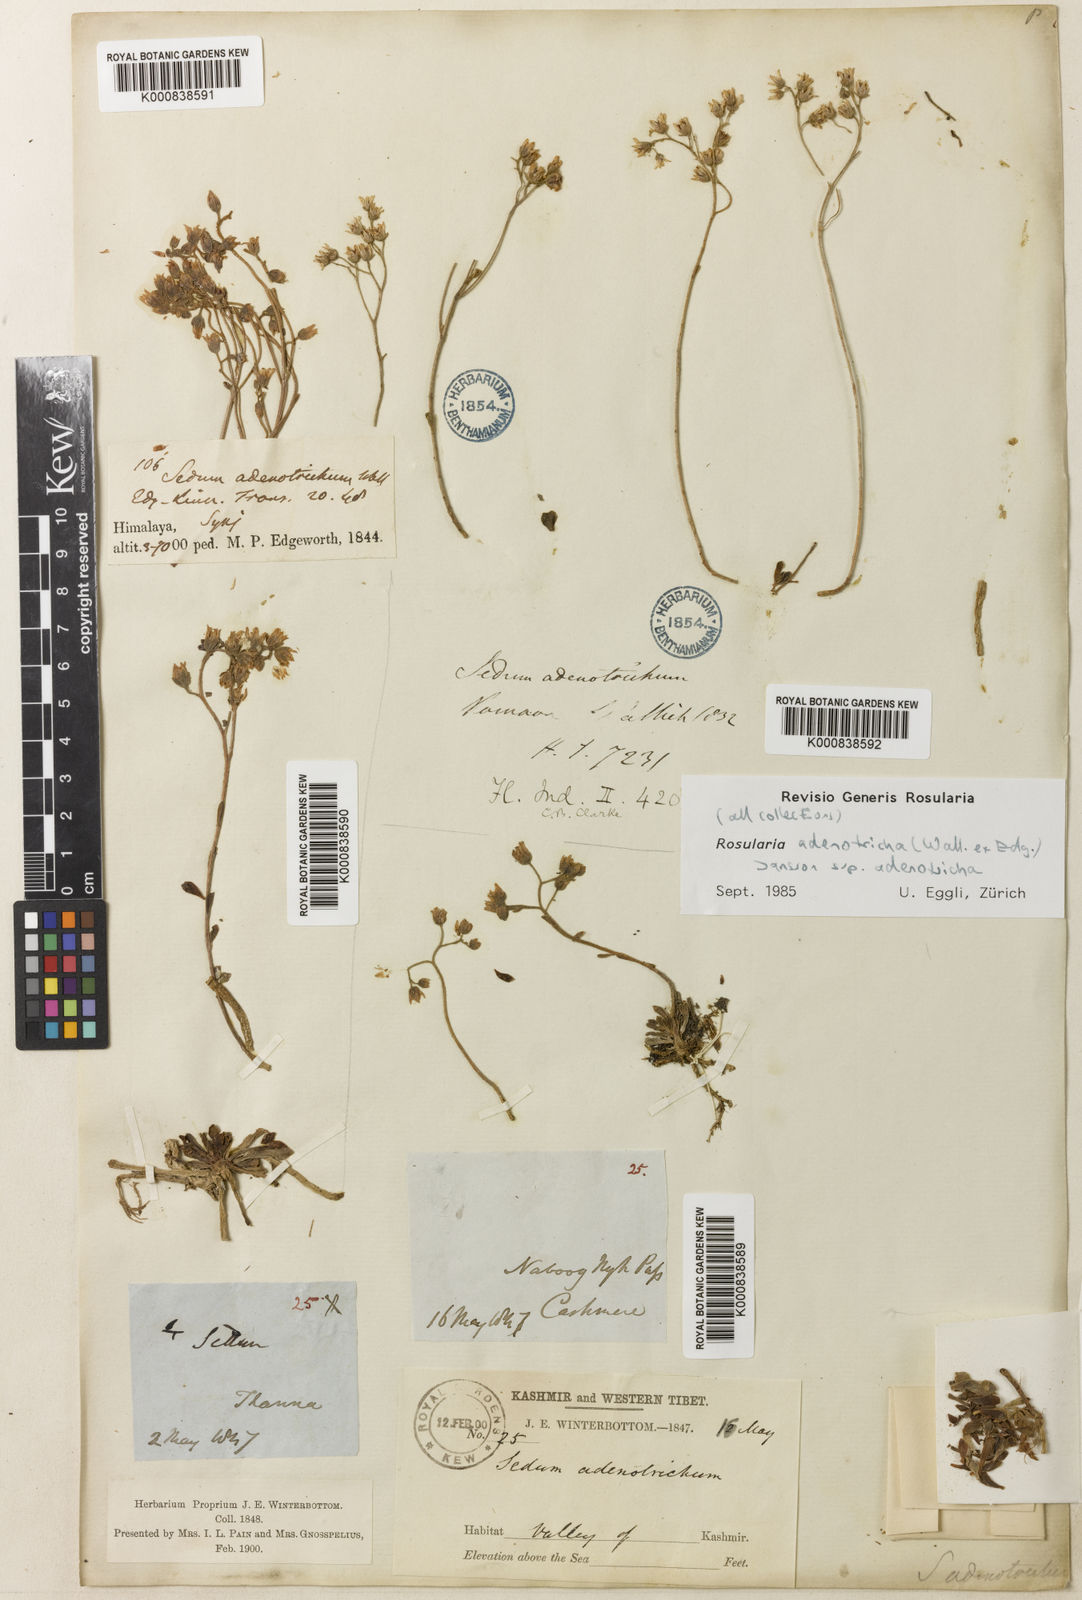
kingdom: Plantae
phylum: Tracheophyta
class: Magnoliopsida
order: Saxifragales
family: Crassulaceae
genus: Rosularia
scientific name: Rosularia adenotricha
